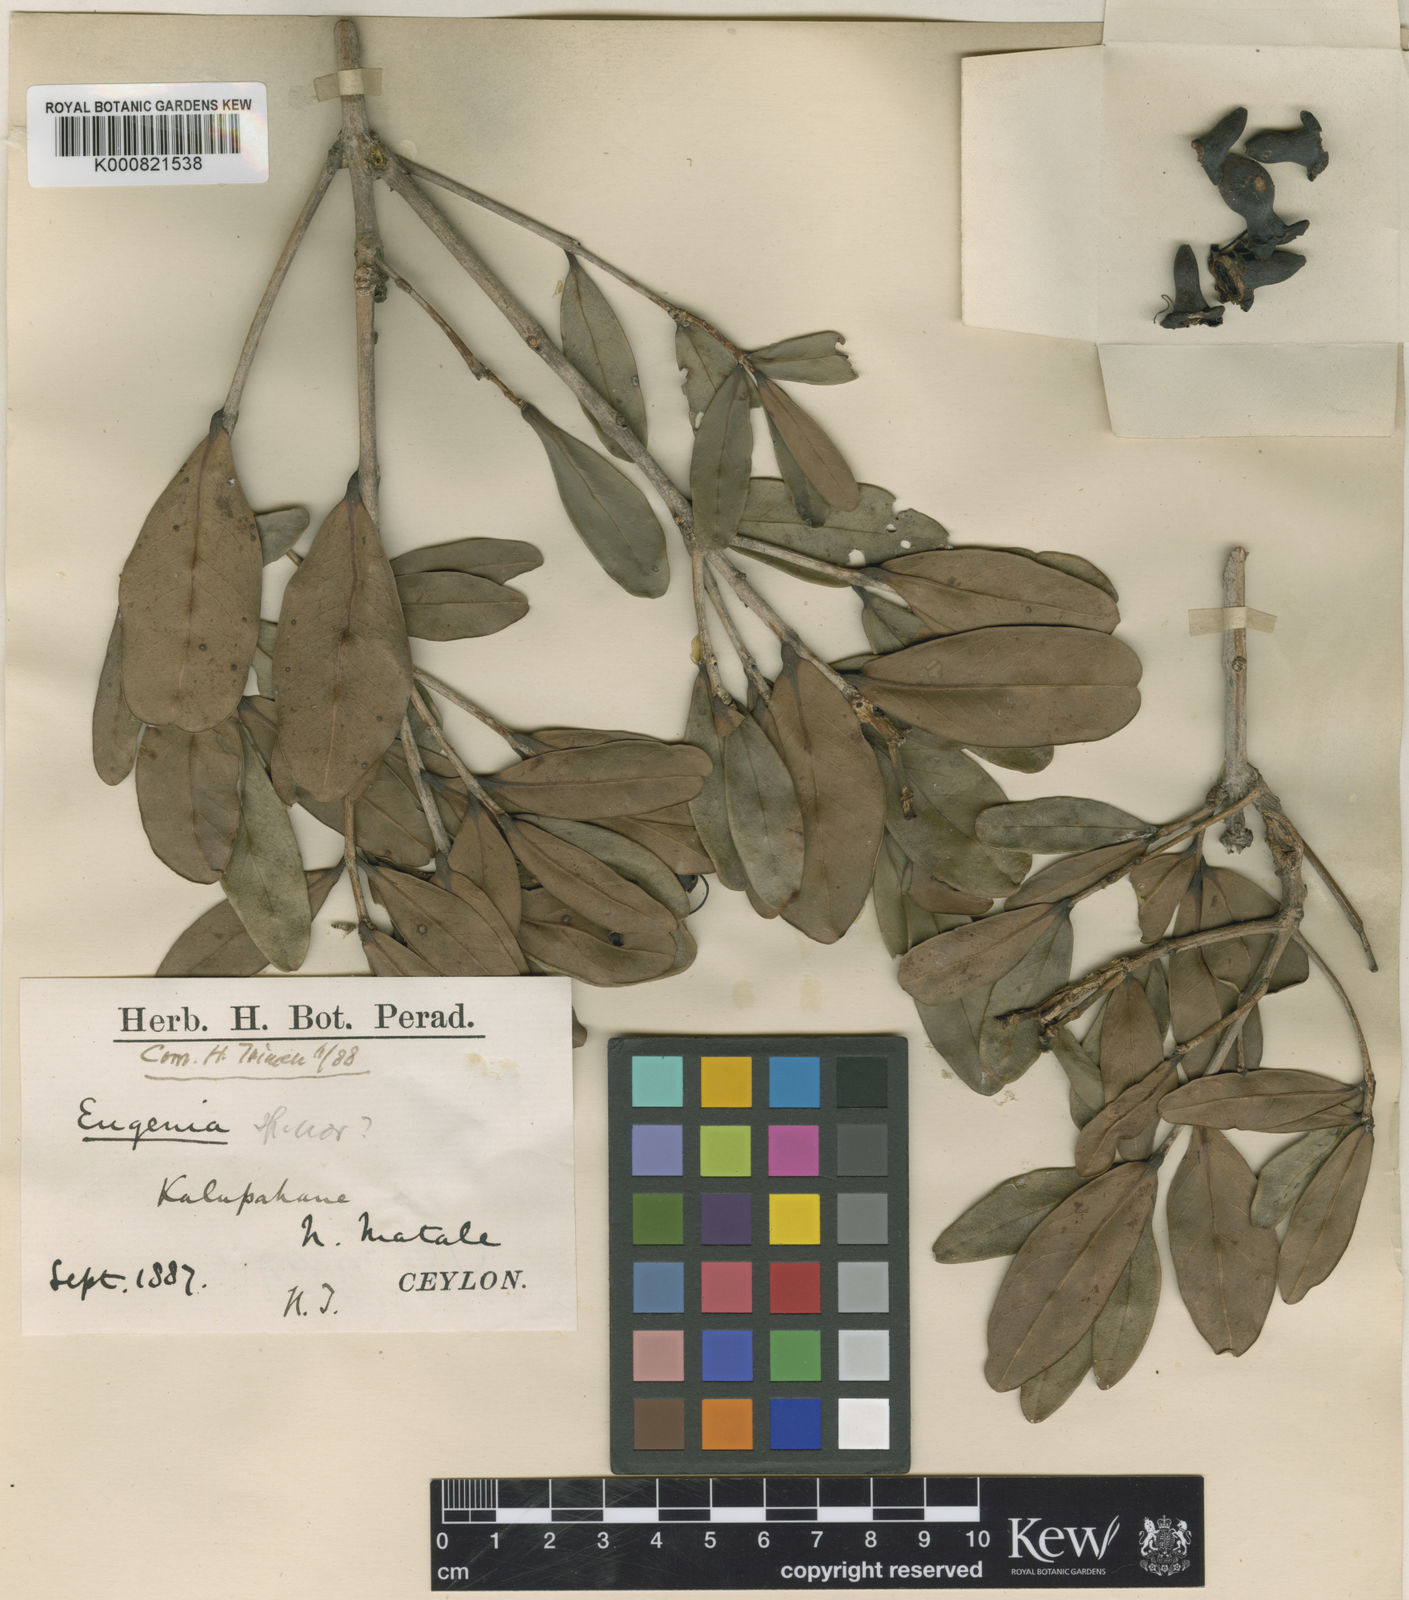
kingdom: Plantae
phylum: Tracheophyta
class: Magnoliopsida
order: Myrtales
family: Myrtaceae
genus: Eugenia
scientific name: Eugenia terpnophylla
